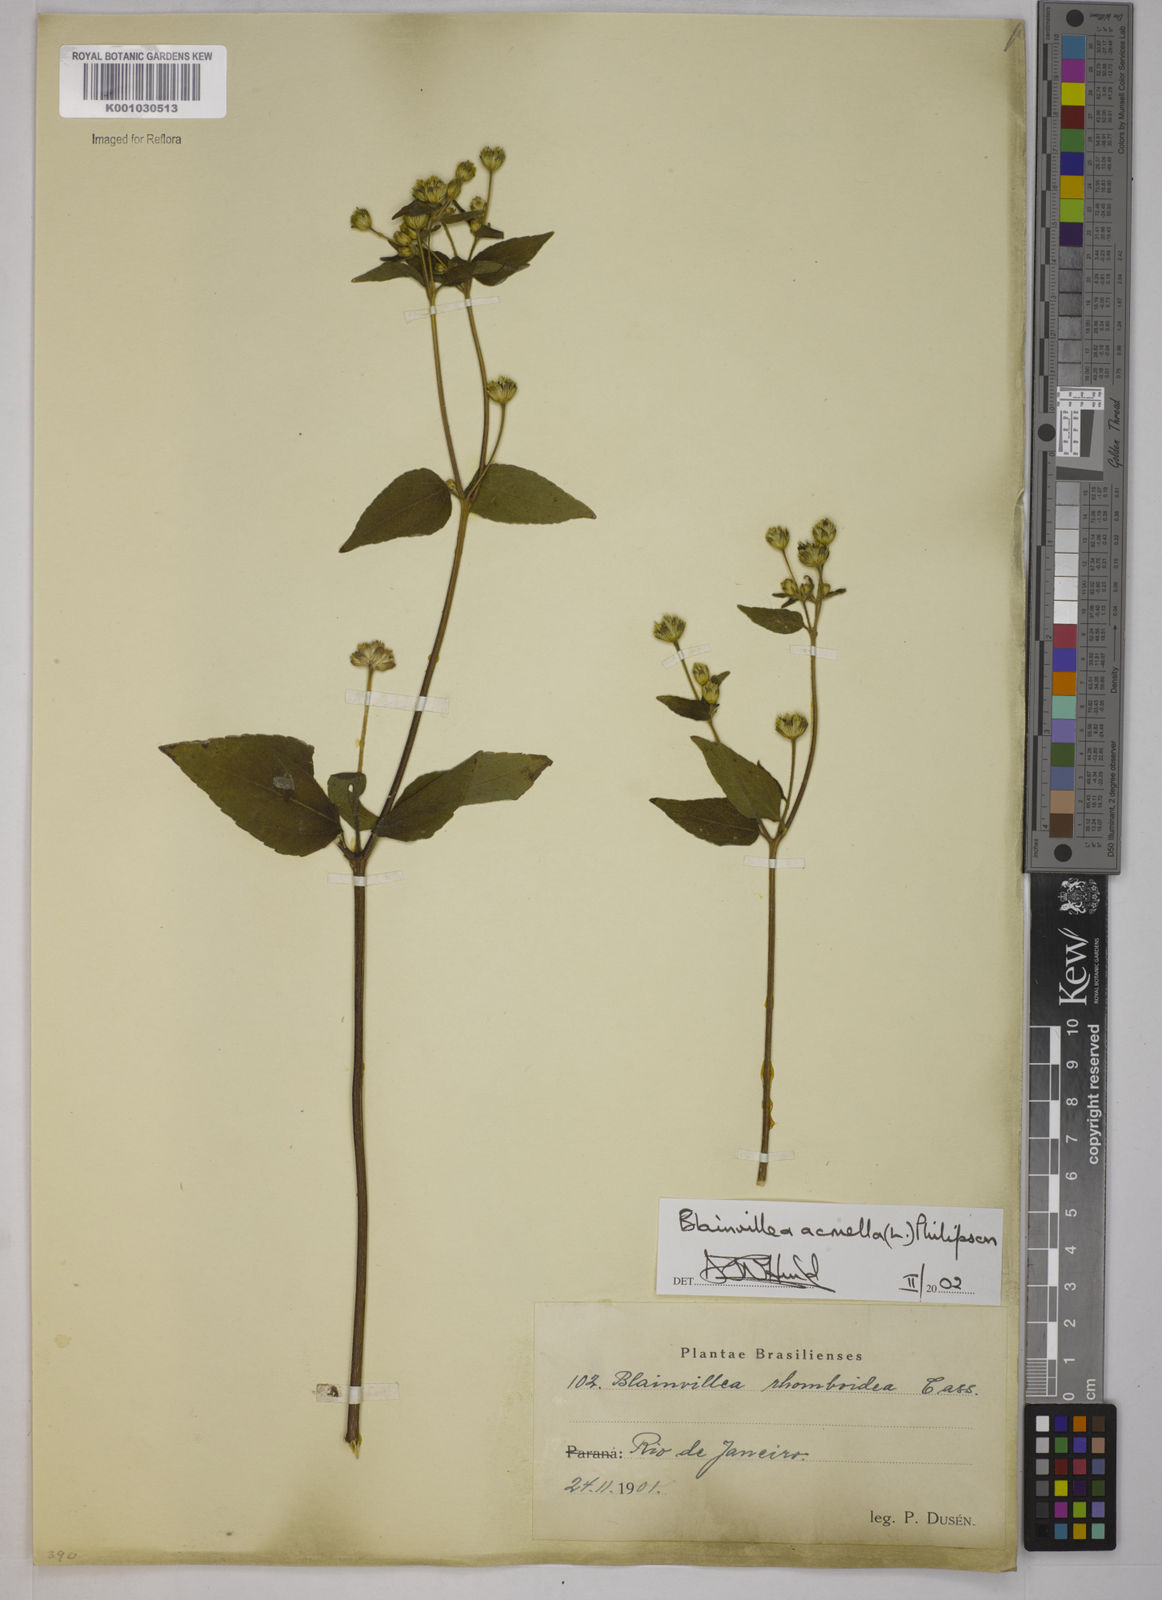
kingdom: Plantae
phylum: Tracheophyta
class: Magnoliopsida
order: Asterales
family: Asteraceae
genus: Blainvillea
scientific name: Blainvillea acmella
